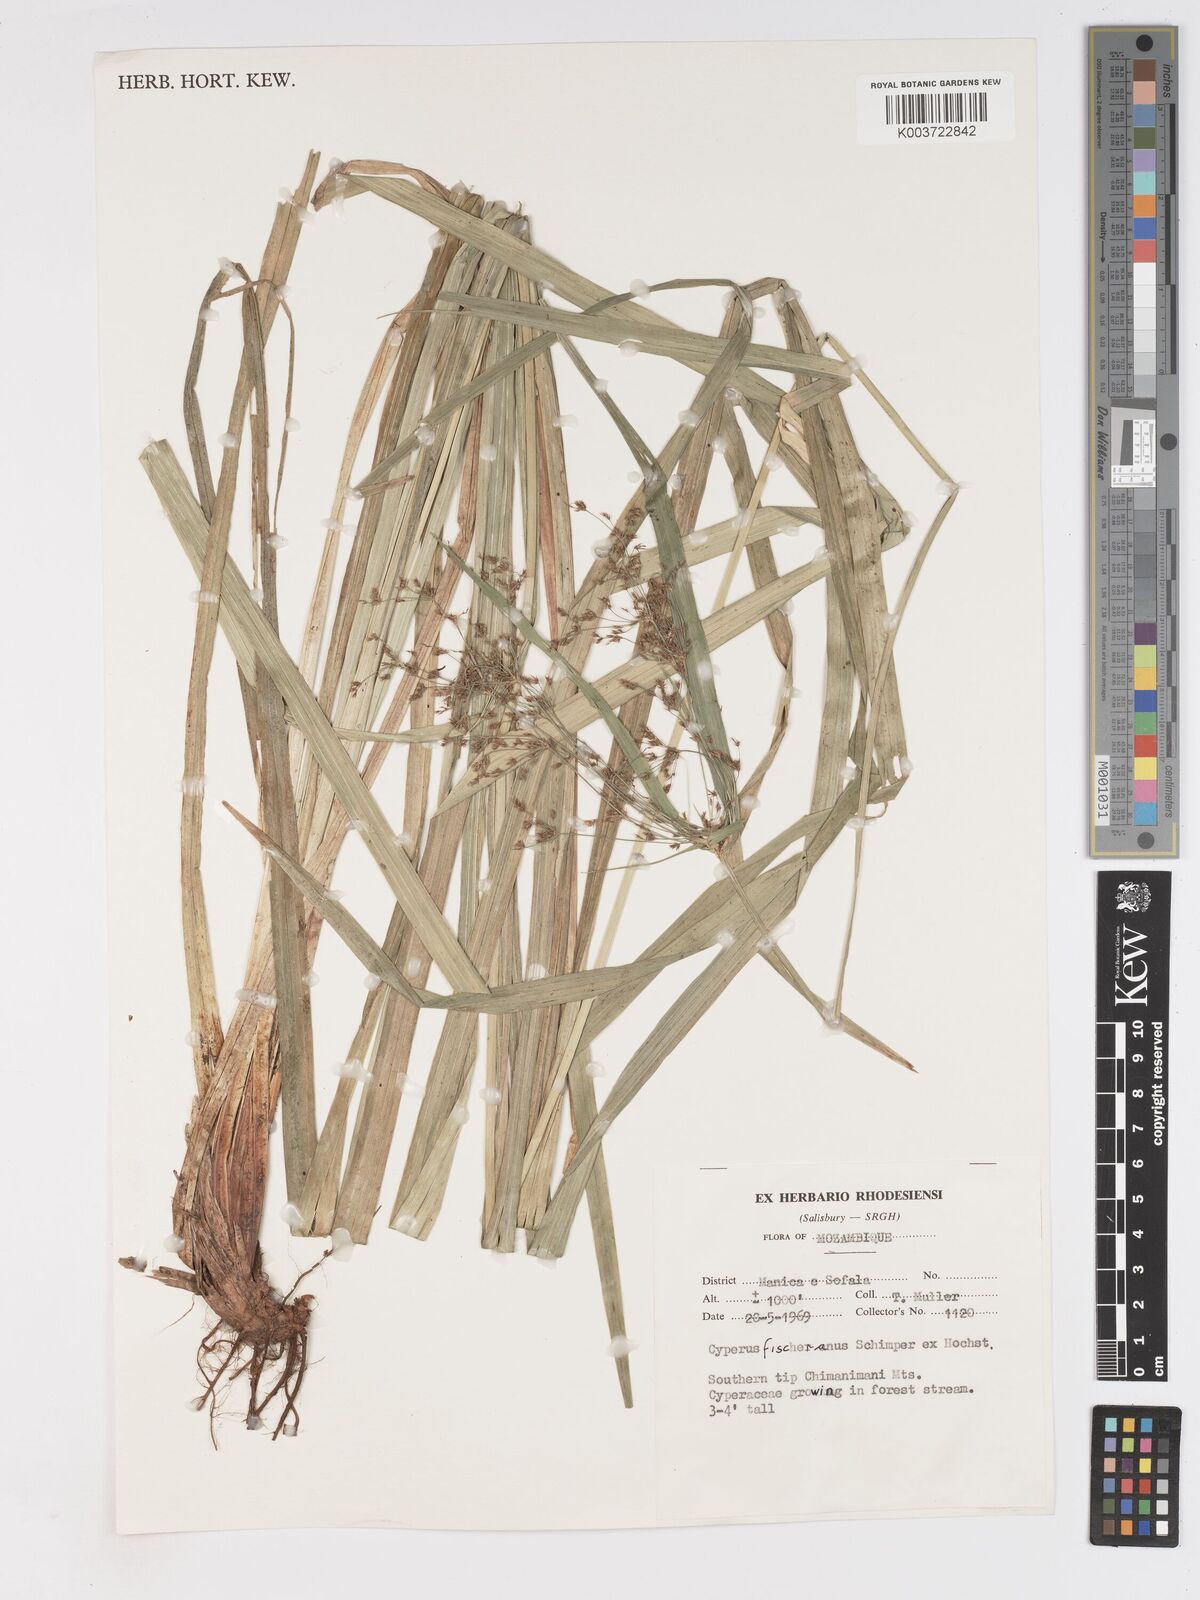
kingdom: Plantae
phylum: Tracheophyta
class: Liliopsida
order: Poales
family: Cyperaceae
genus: Cyperus
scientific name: Cyperus fischerianus
